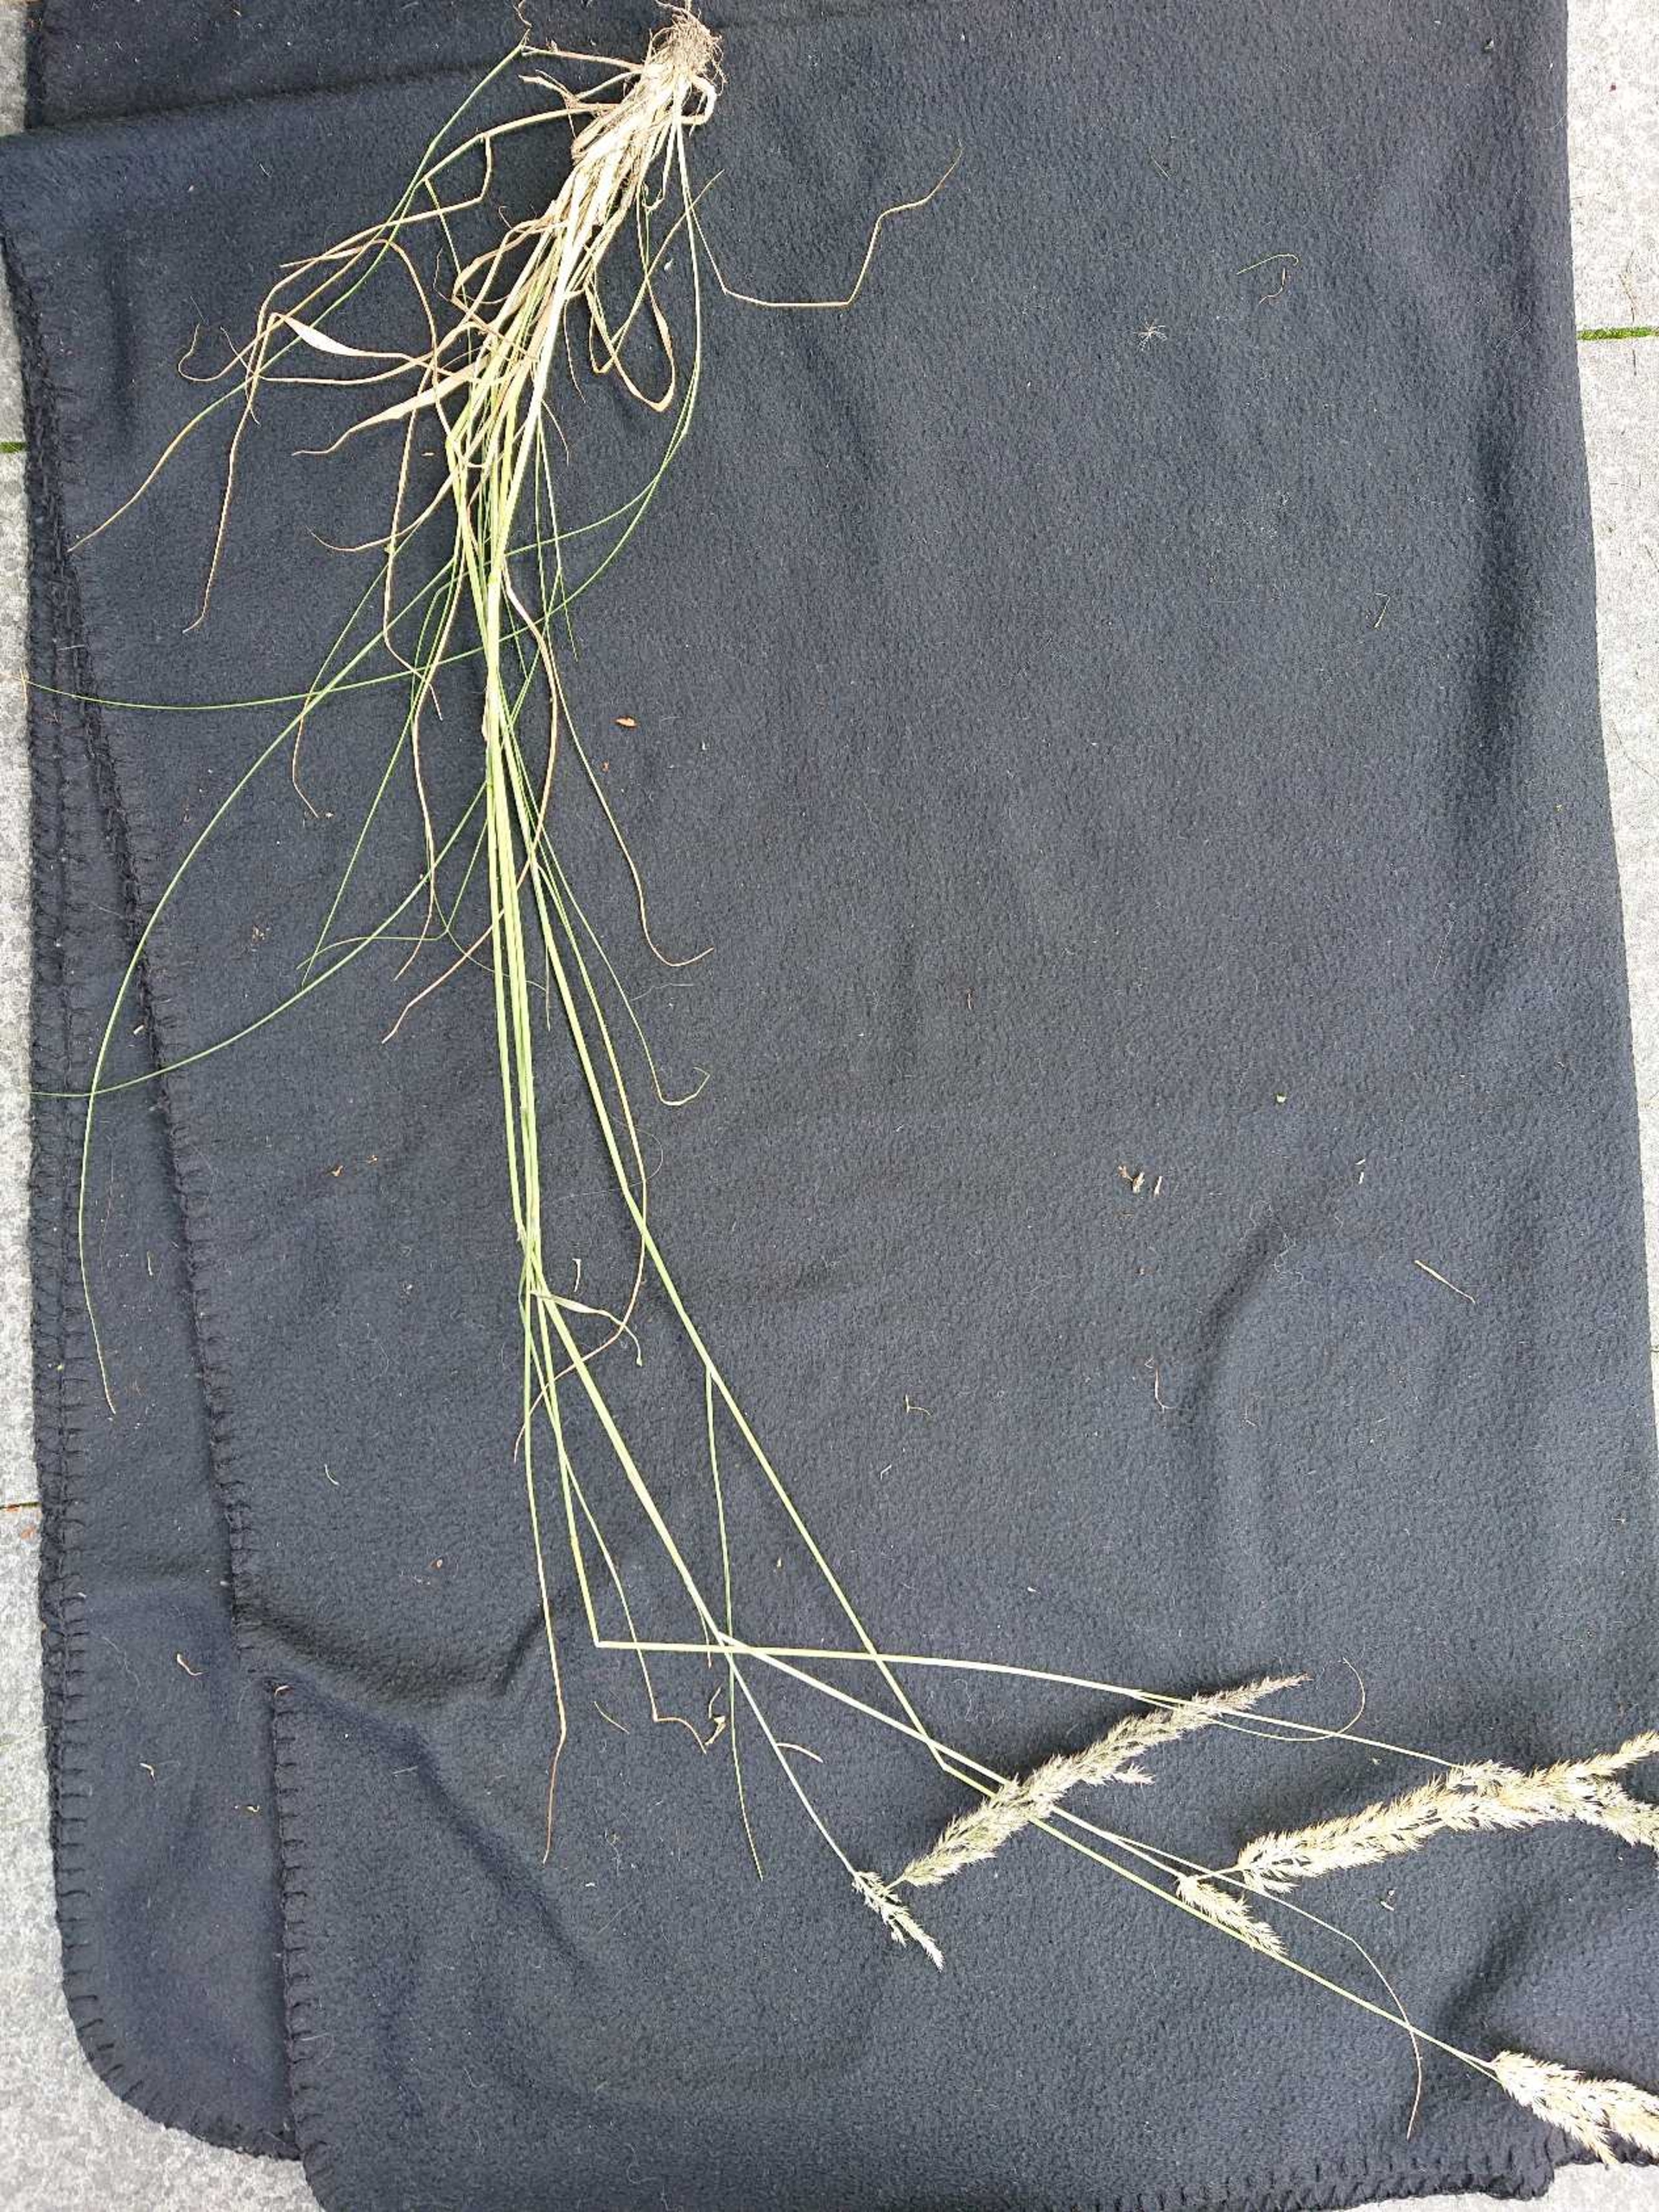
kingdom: Plantae
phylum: Tracheophyta
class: Liliopsida
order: Poales
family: Poaceae
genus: Calamagrostis
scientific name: Calamagrostis epigejos
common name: Bjerg-rørhvene
